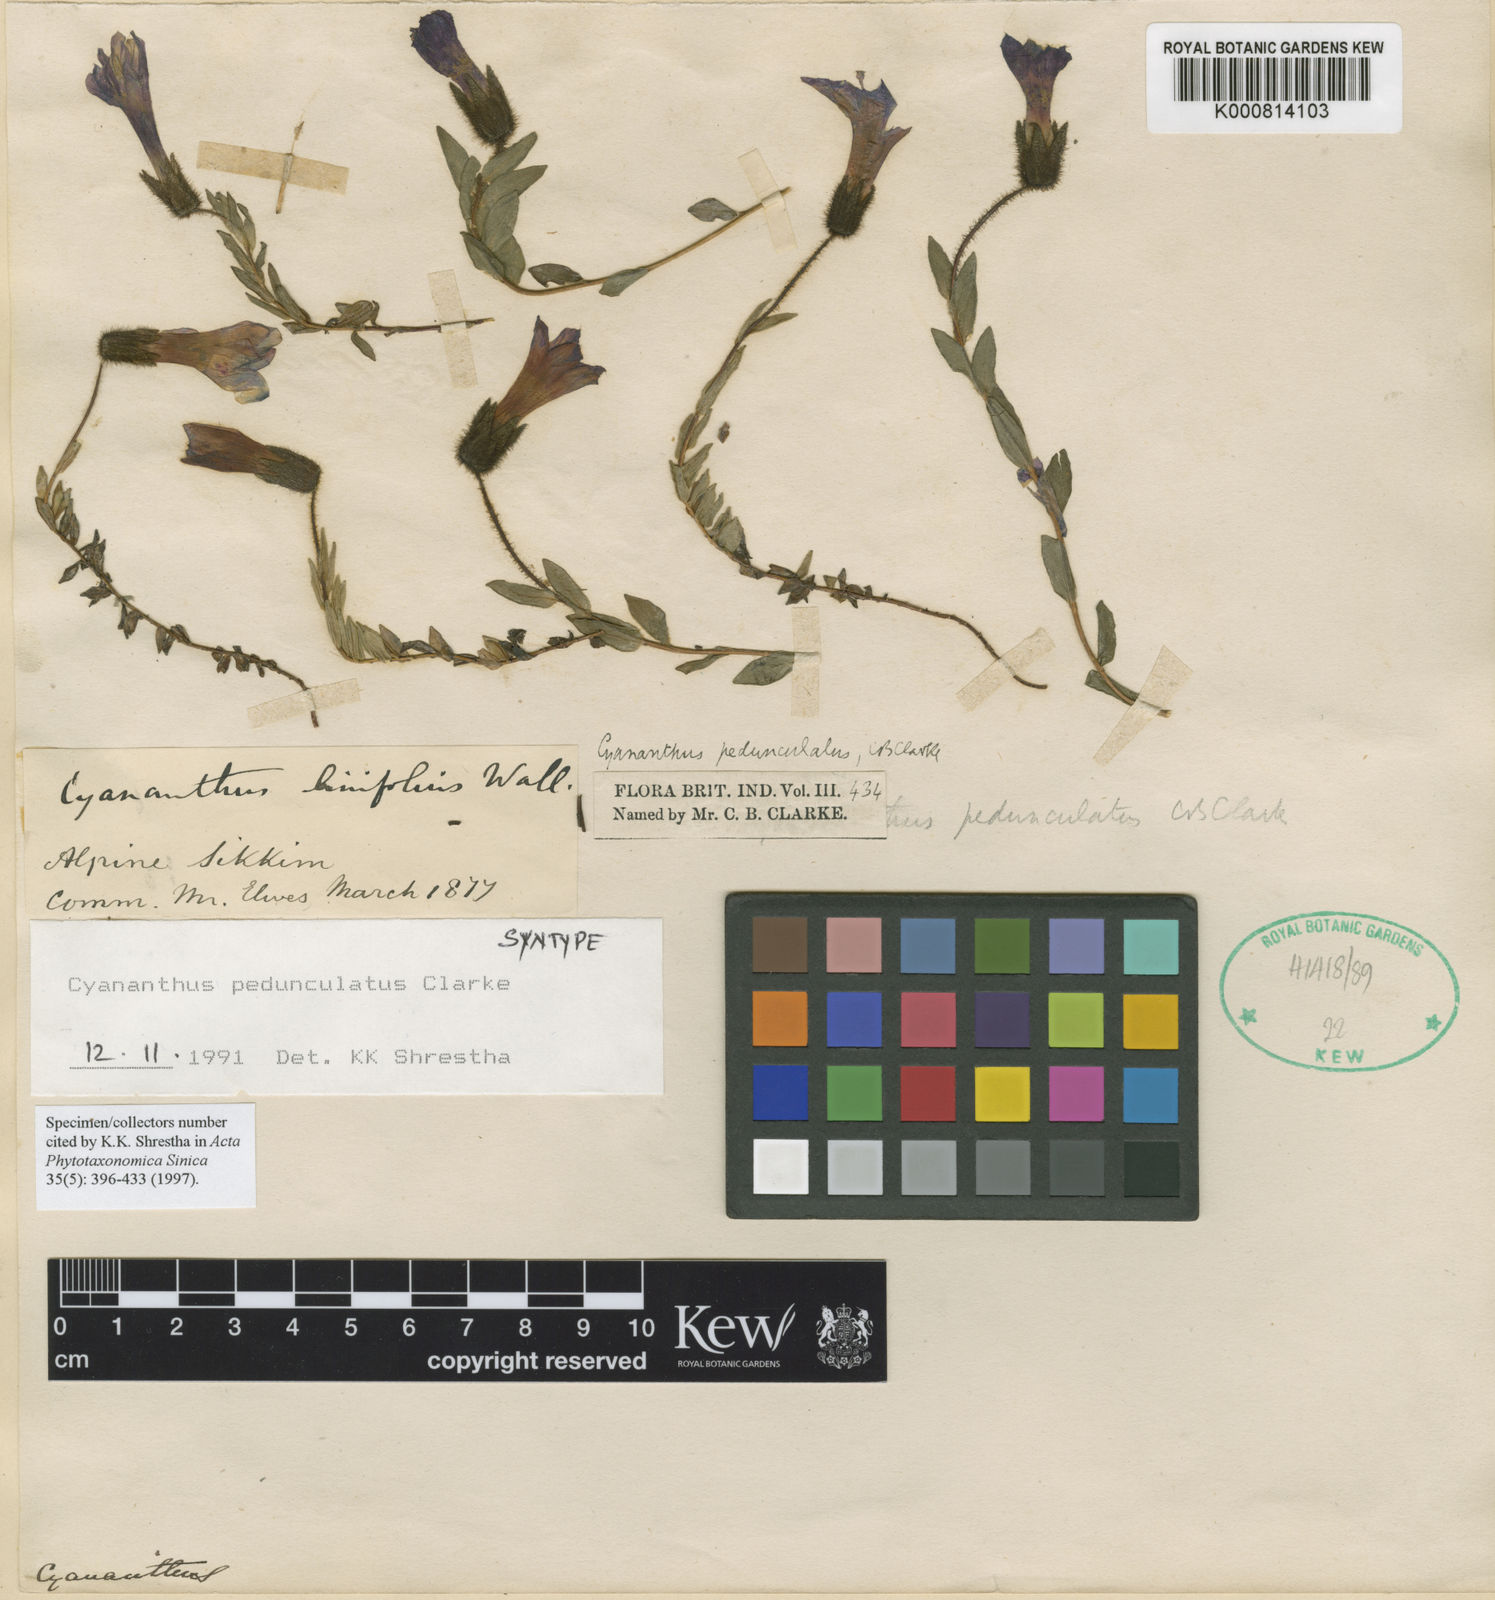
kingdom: Plantae
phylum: Tracheophyta
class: Magnoliopsida
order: Asterales
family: Campanulaceae
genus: Cyananthus
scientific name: Cyananthus pedunculatus
